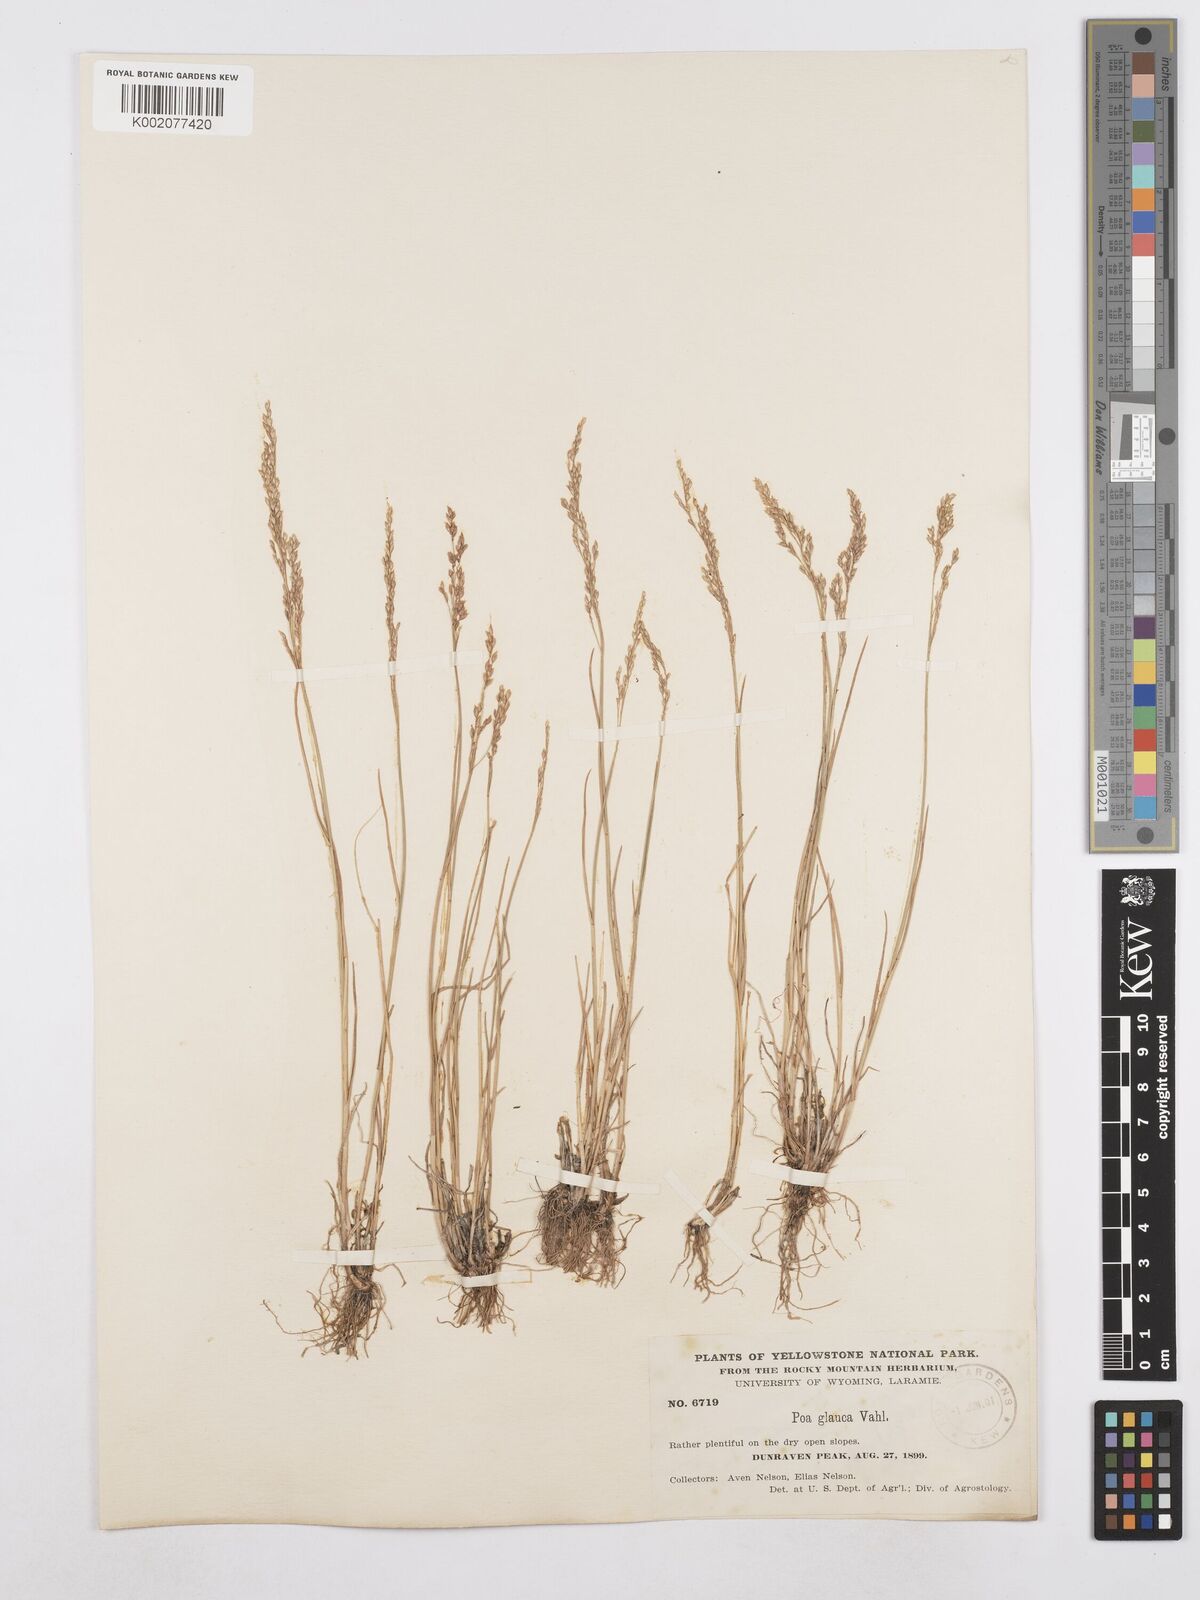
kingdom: Plantae
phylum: Tracheophyta
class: Liliopsida
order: Poales
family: Poaceae
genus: Poa
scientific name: Poa glauca
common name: Glaucous bluegrass
